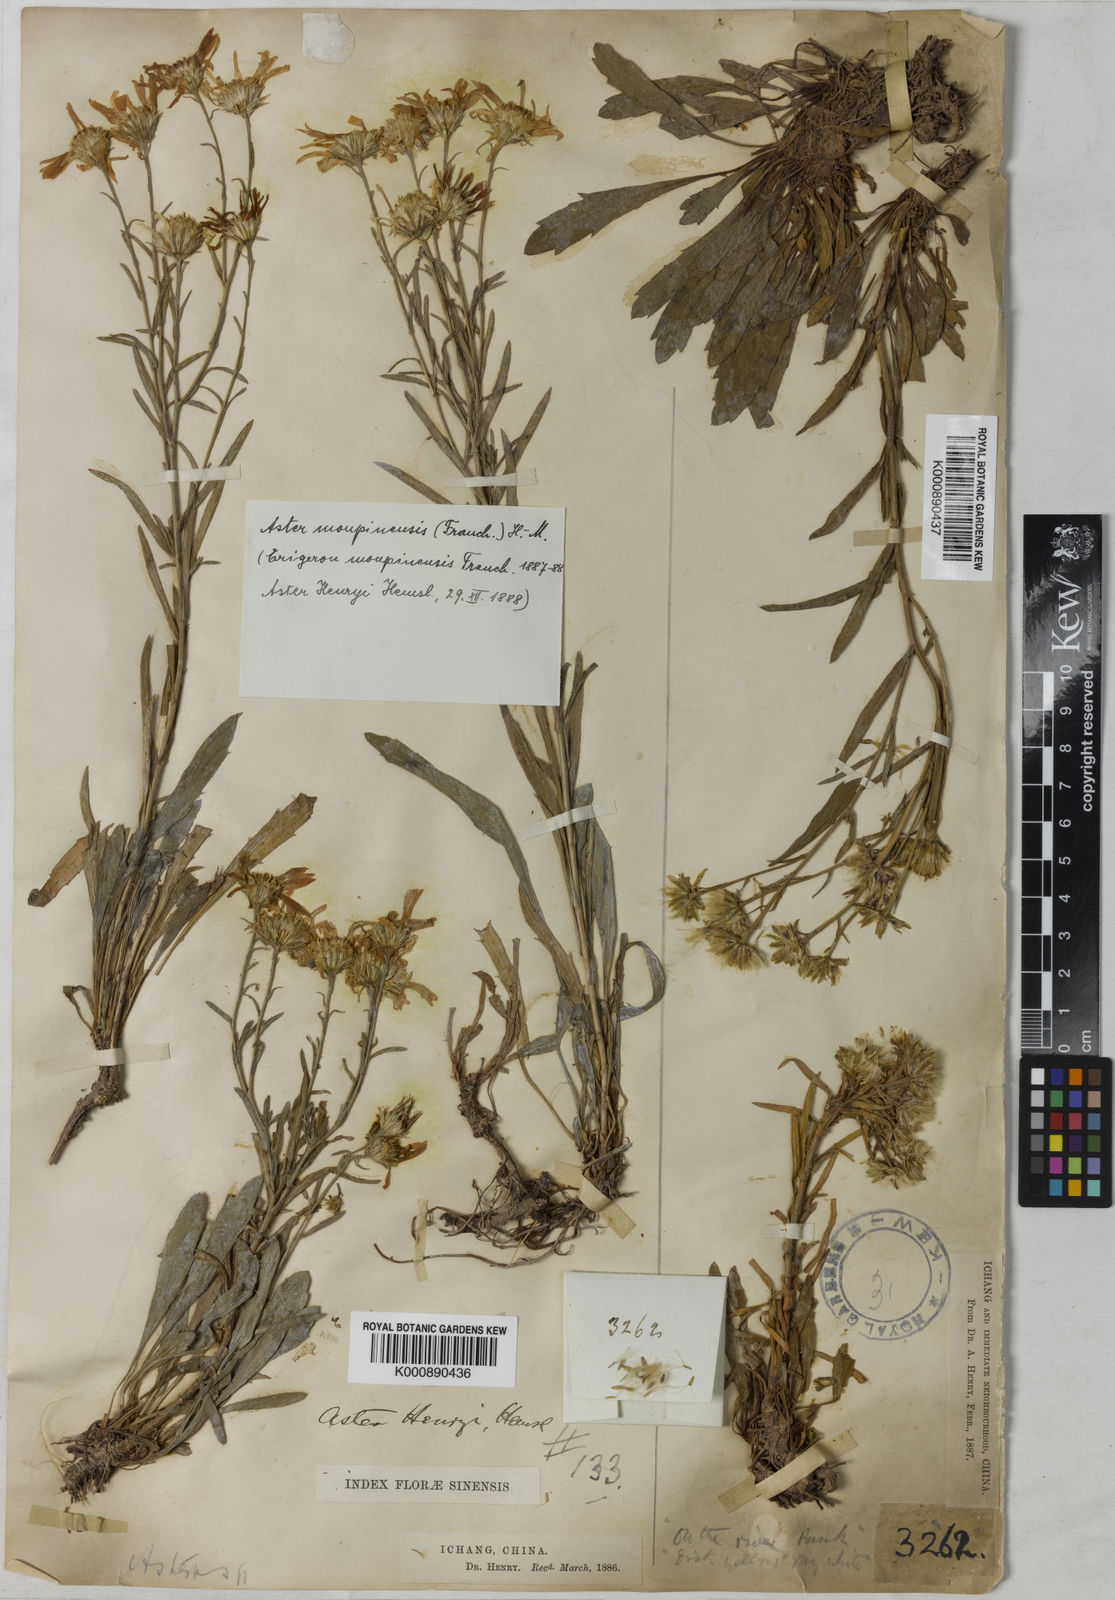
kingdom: Plantae
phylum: Tracheophyta
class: Magnoliopsida
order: Asterales
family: Asteraceae
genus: Aster
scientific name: Aster moupinensis
